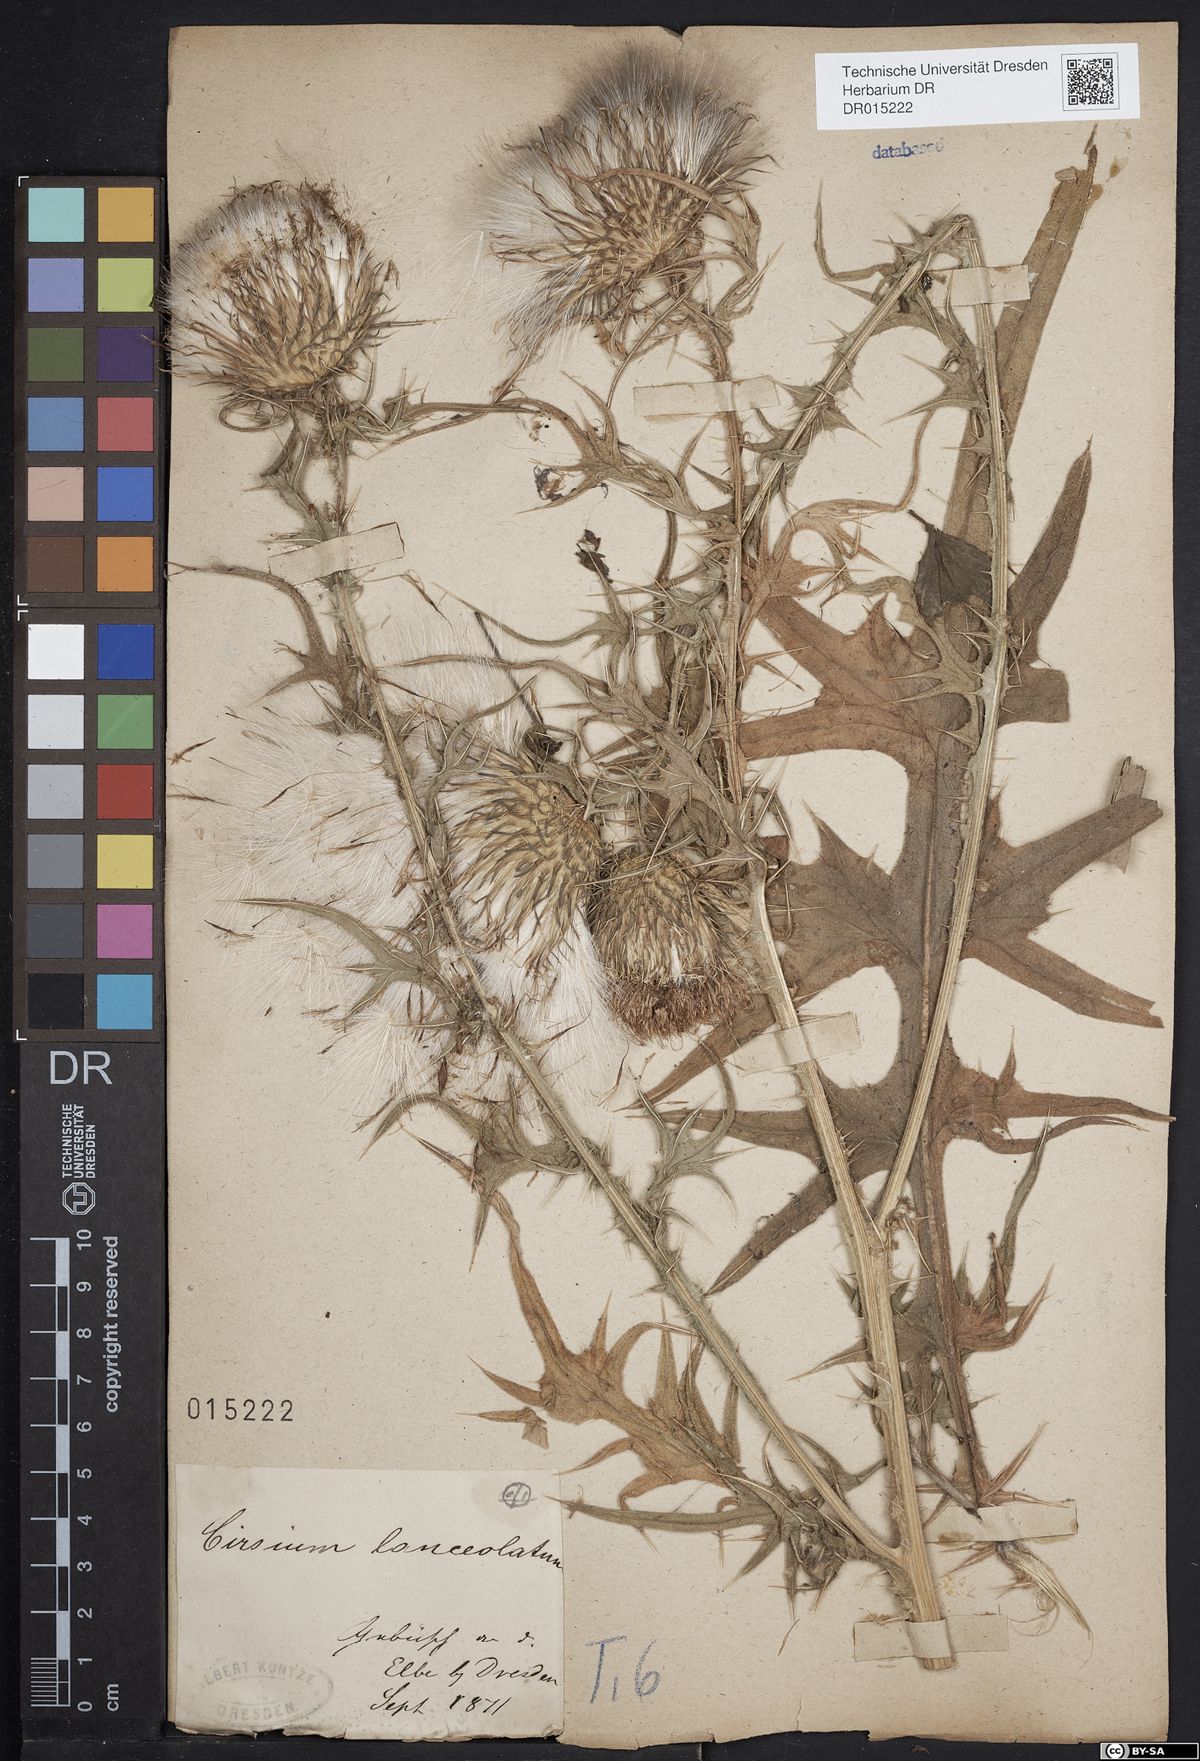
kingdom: Plantae
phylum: Tracheophyta
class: Magnoliopsida
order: Asterales
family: Asteraceae
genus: Cirsium
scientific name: Cirsium vulgare
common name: Bull thistle
